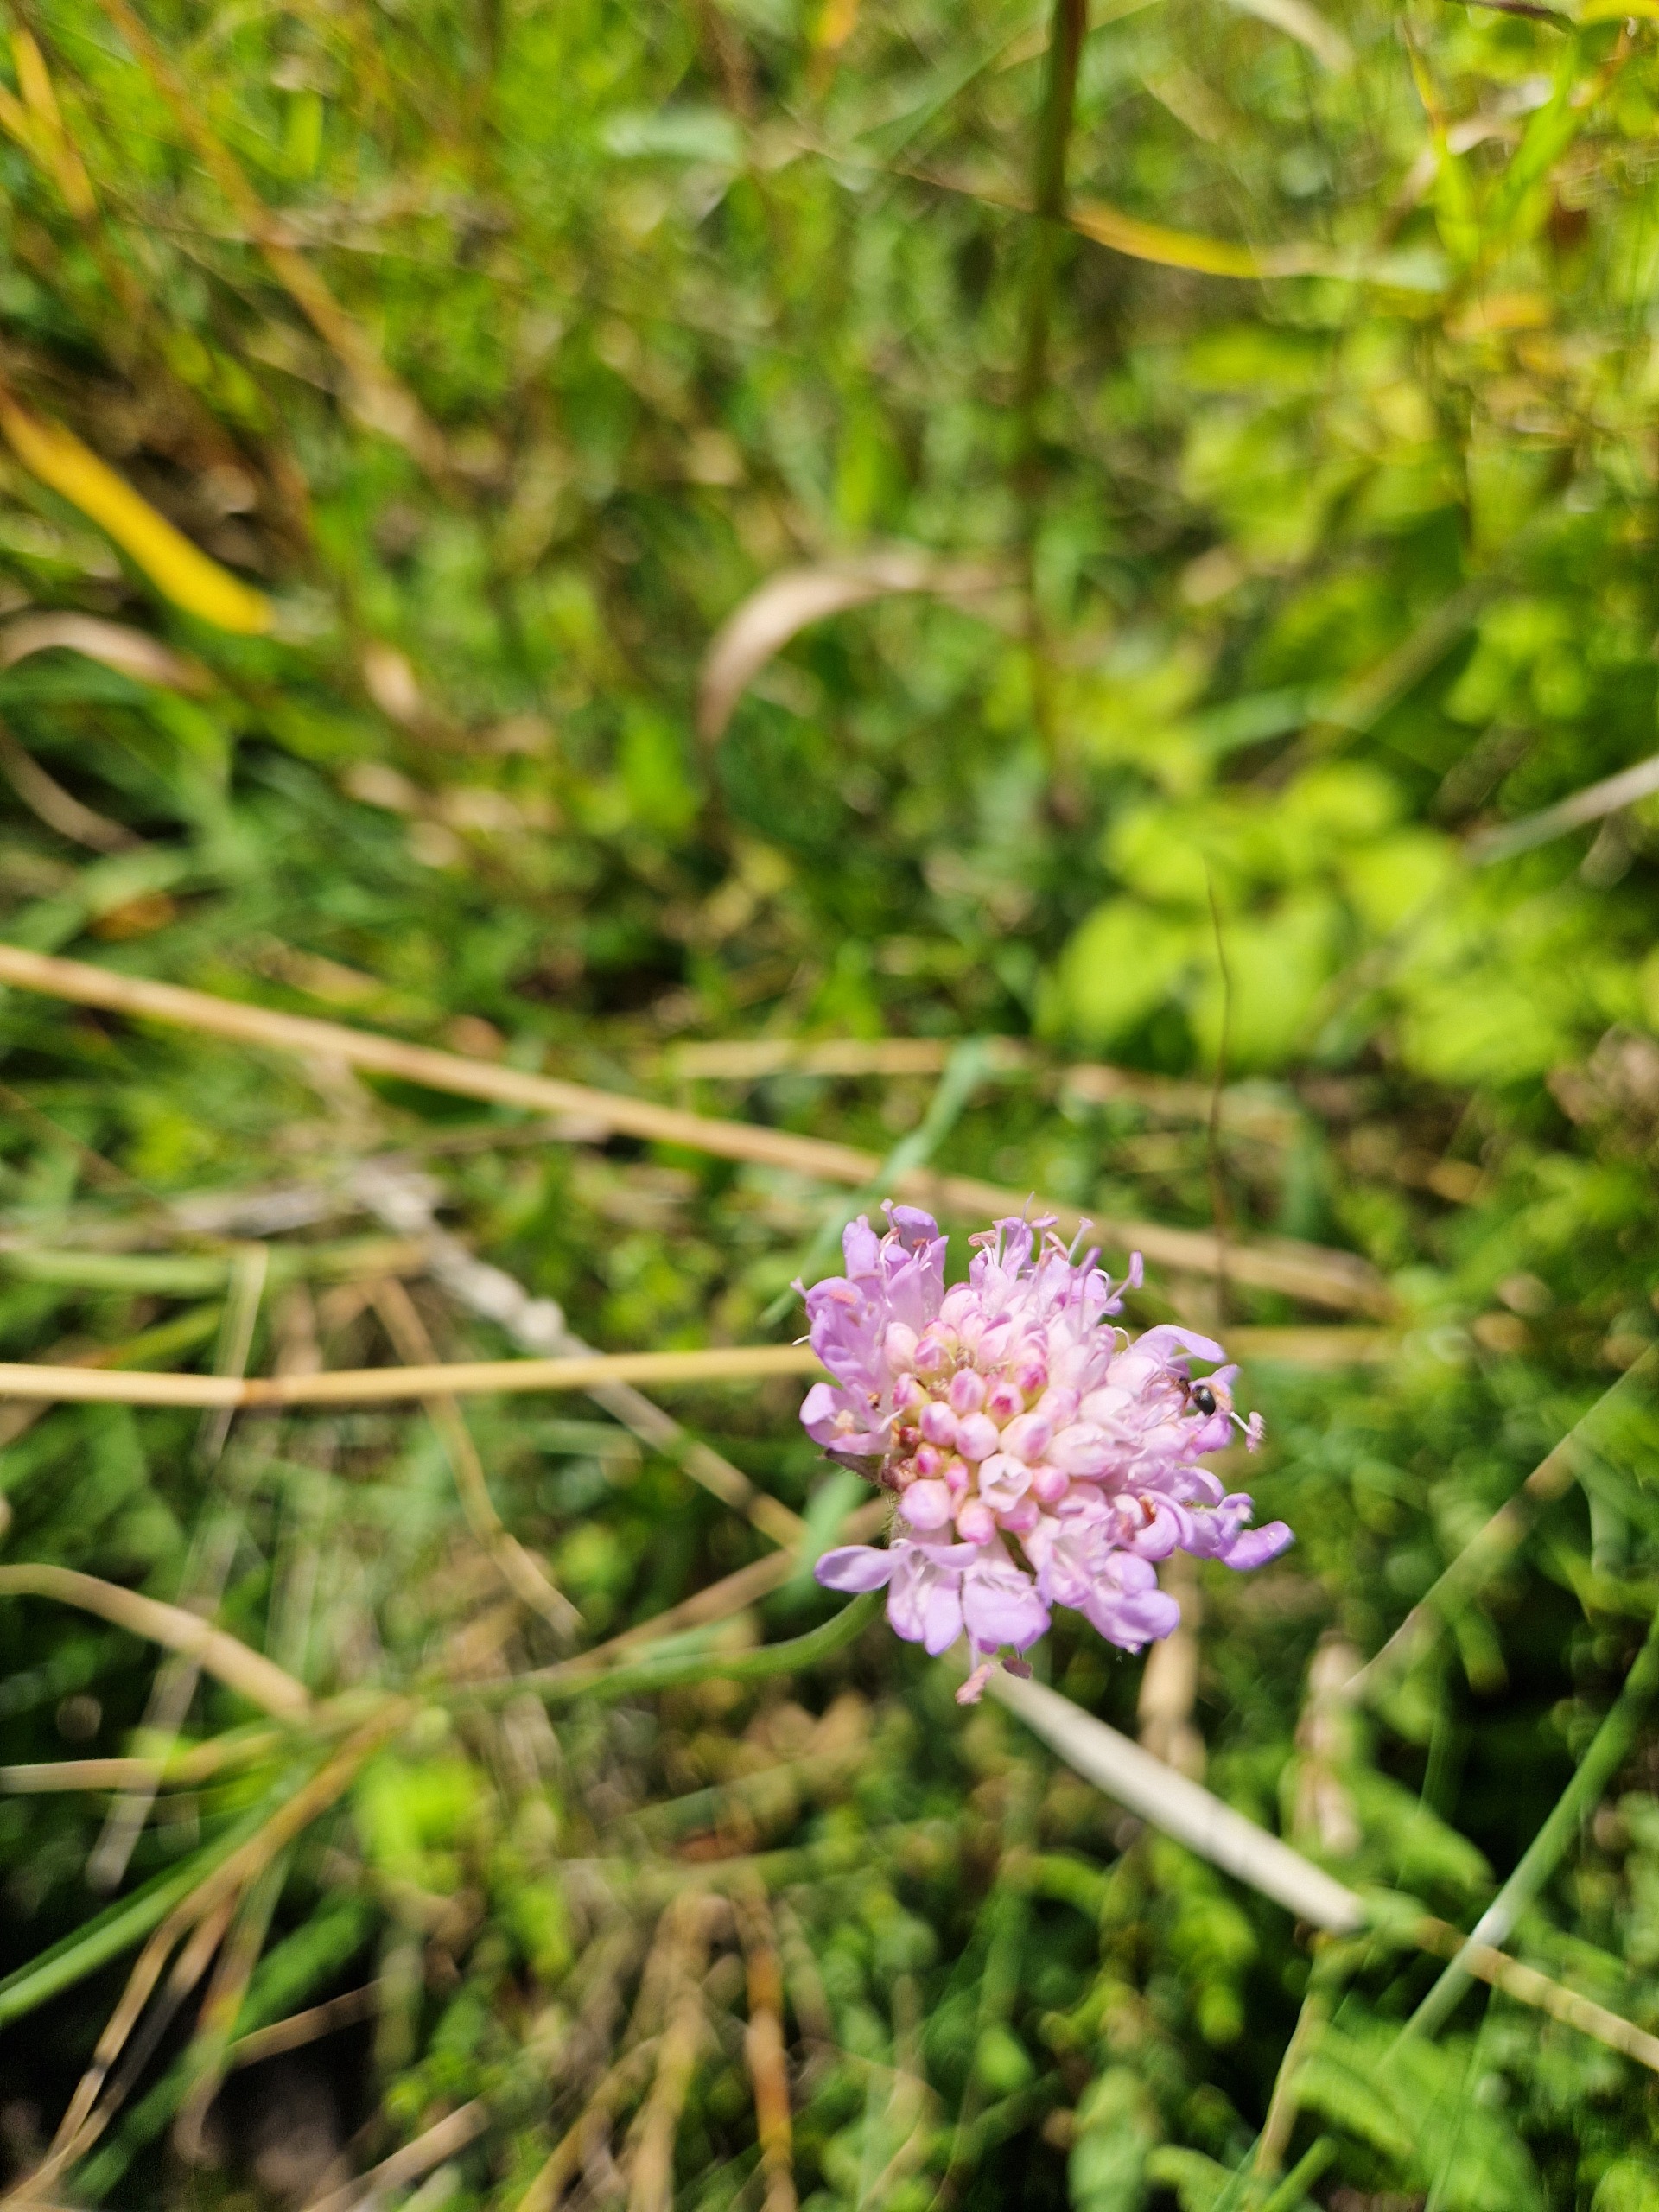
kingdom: Plantae
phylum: Tracheophyta
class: Magnoliopsida
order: Dipsacales
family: Caprifoliaceae
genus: Knautia
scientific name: Knautia arvensis
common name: Blåhat
